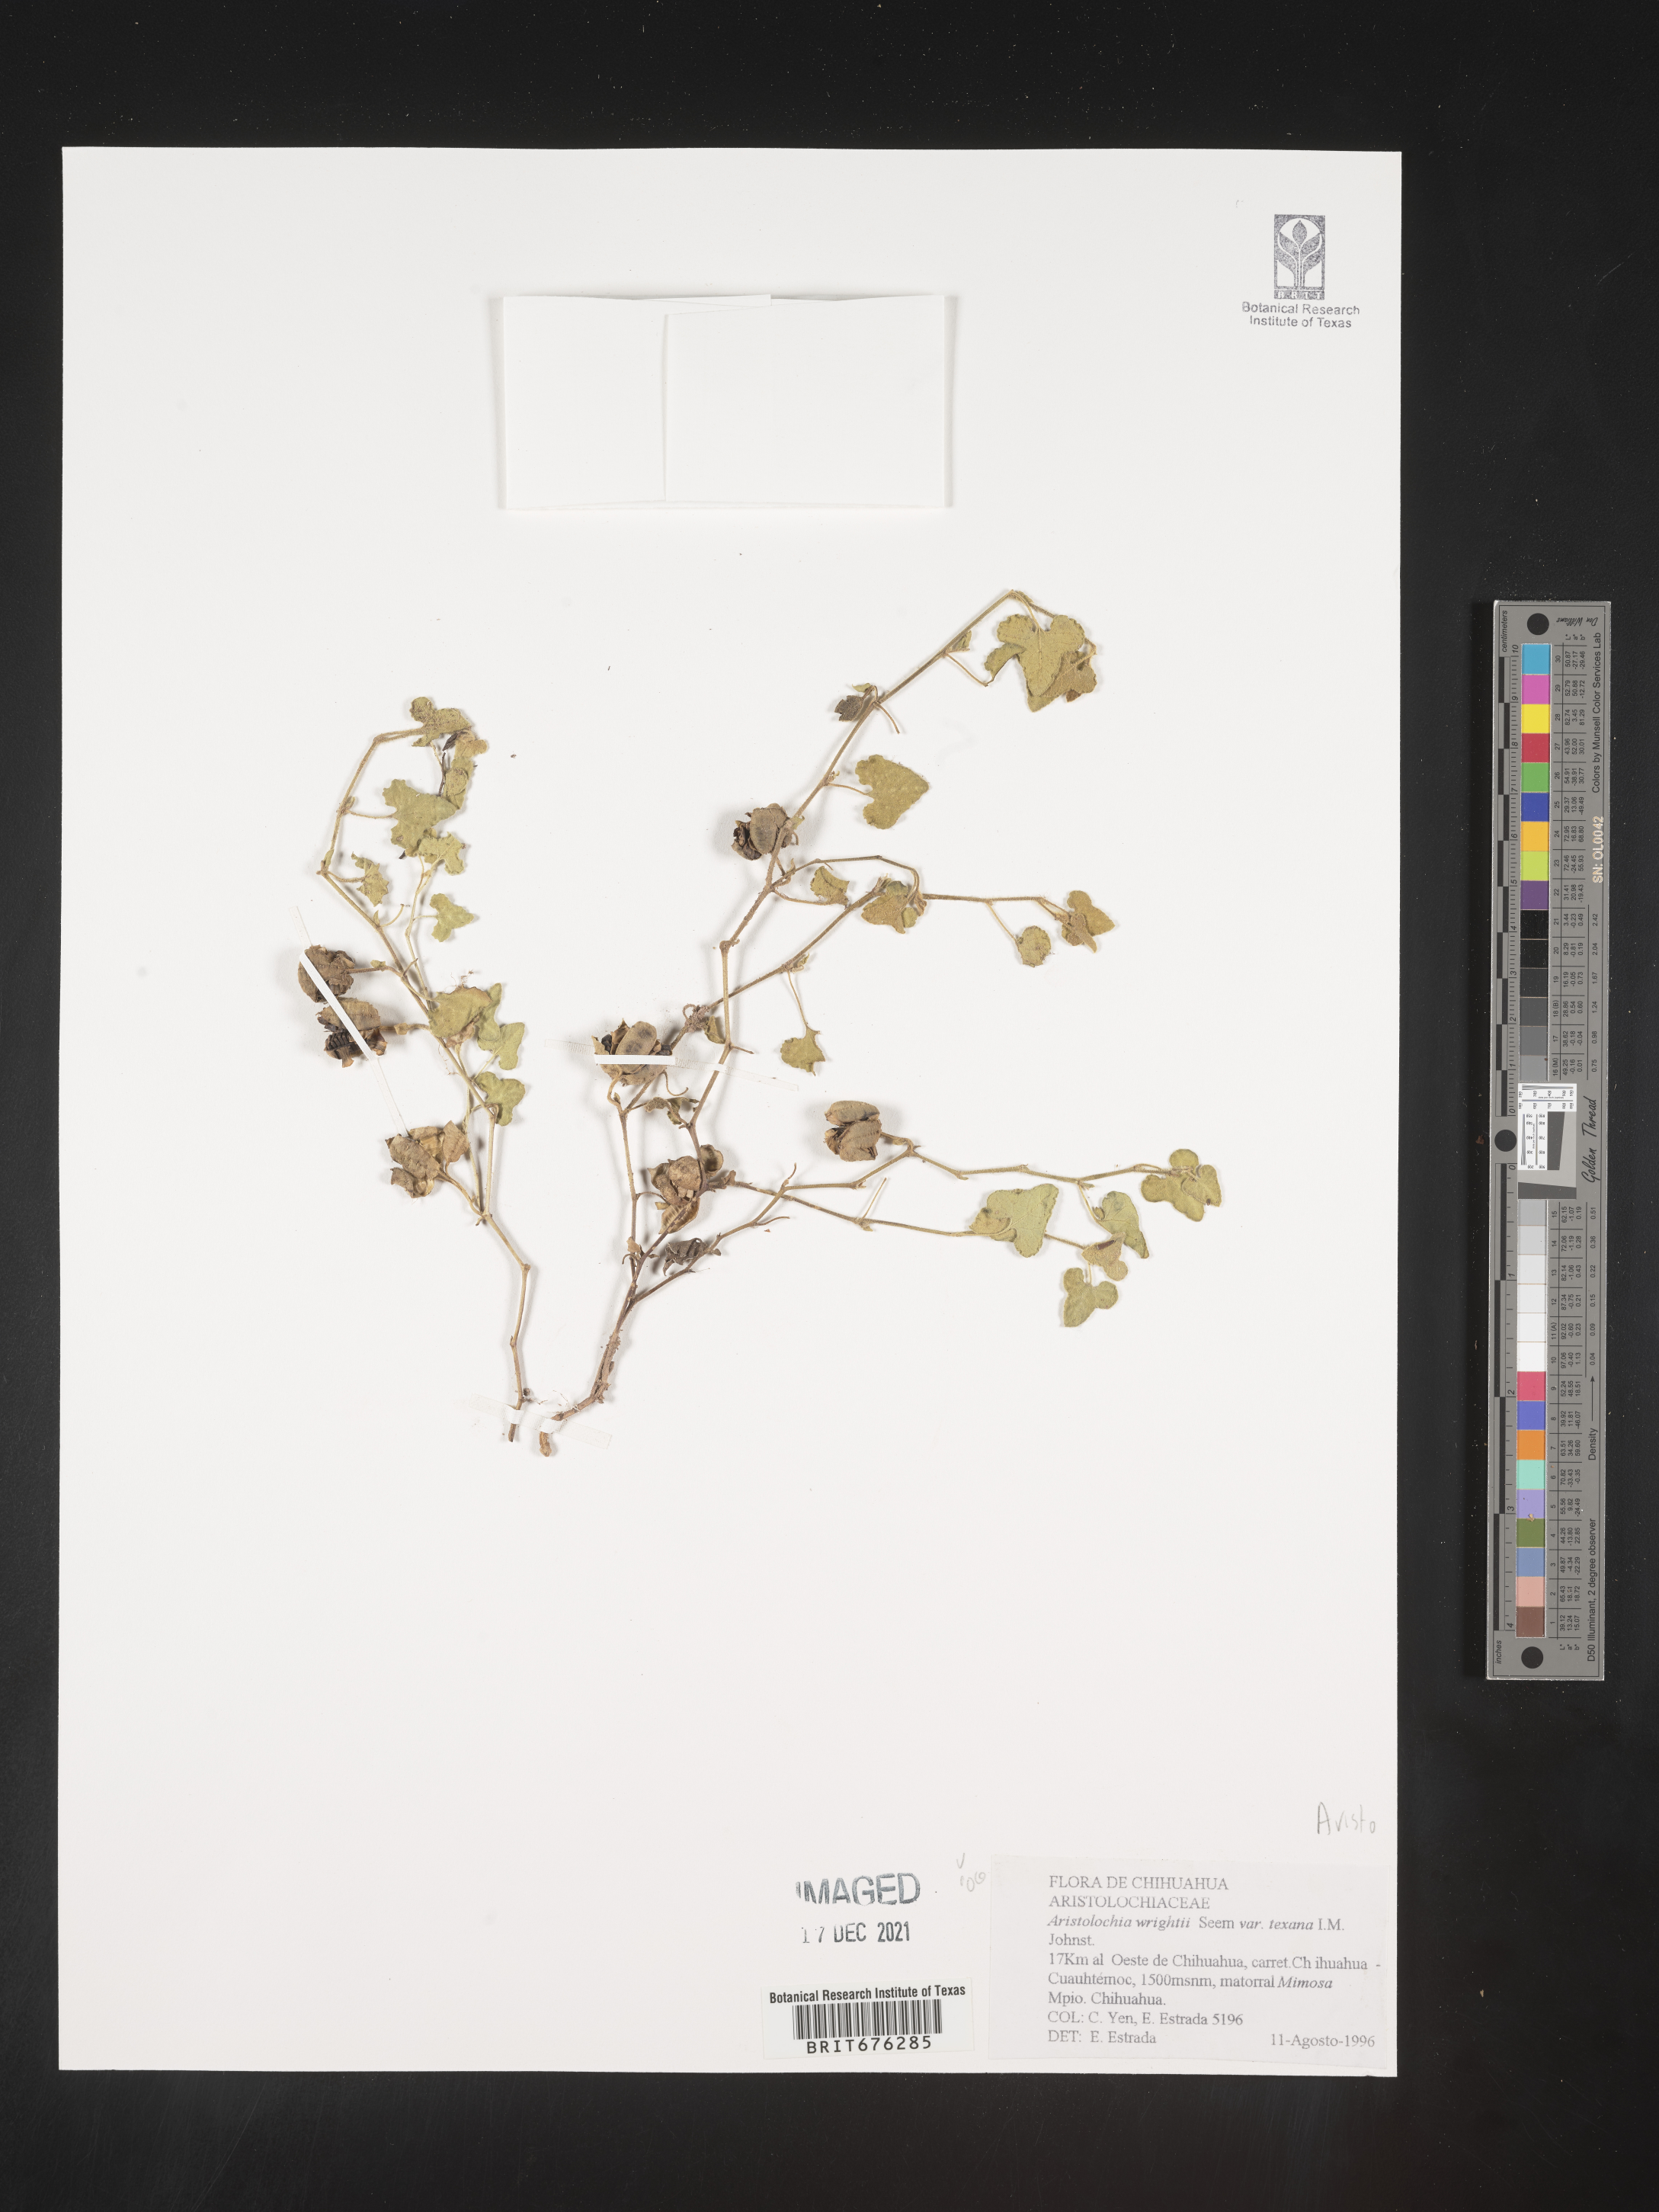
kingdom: Plantae
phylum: Tracheophyta
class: Magnoliopsida
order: Piperales
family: Aristolochiaceae
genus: Aristolochia
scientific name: Aristolochia
